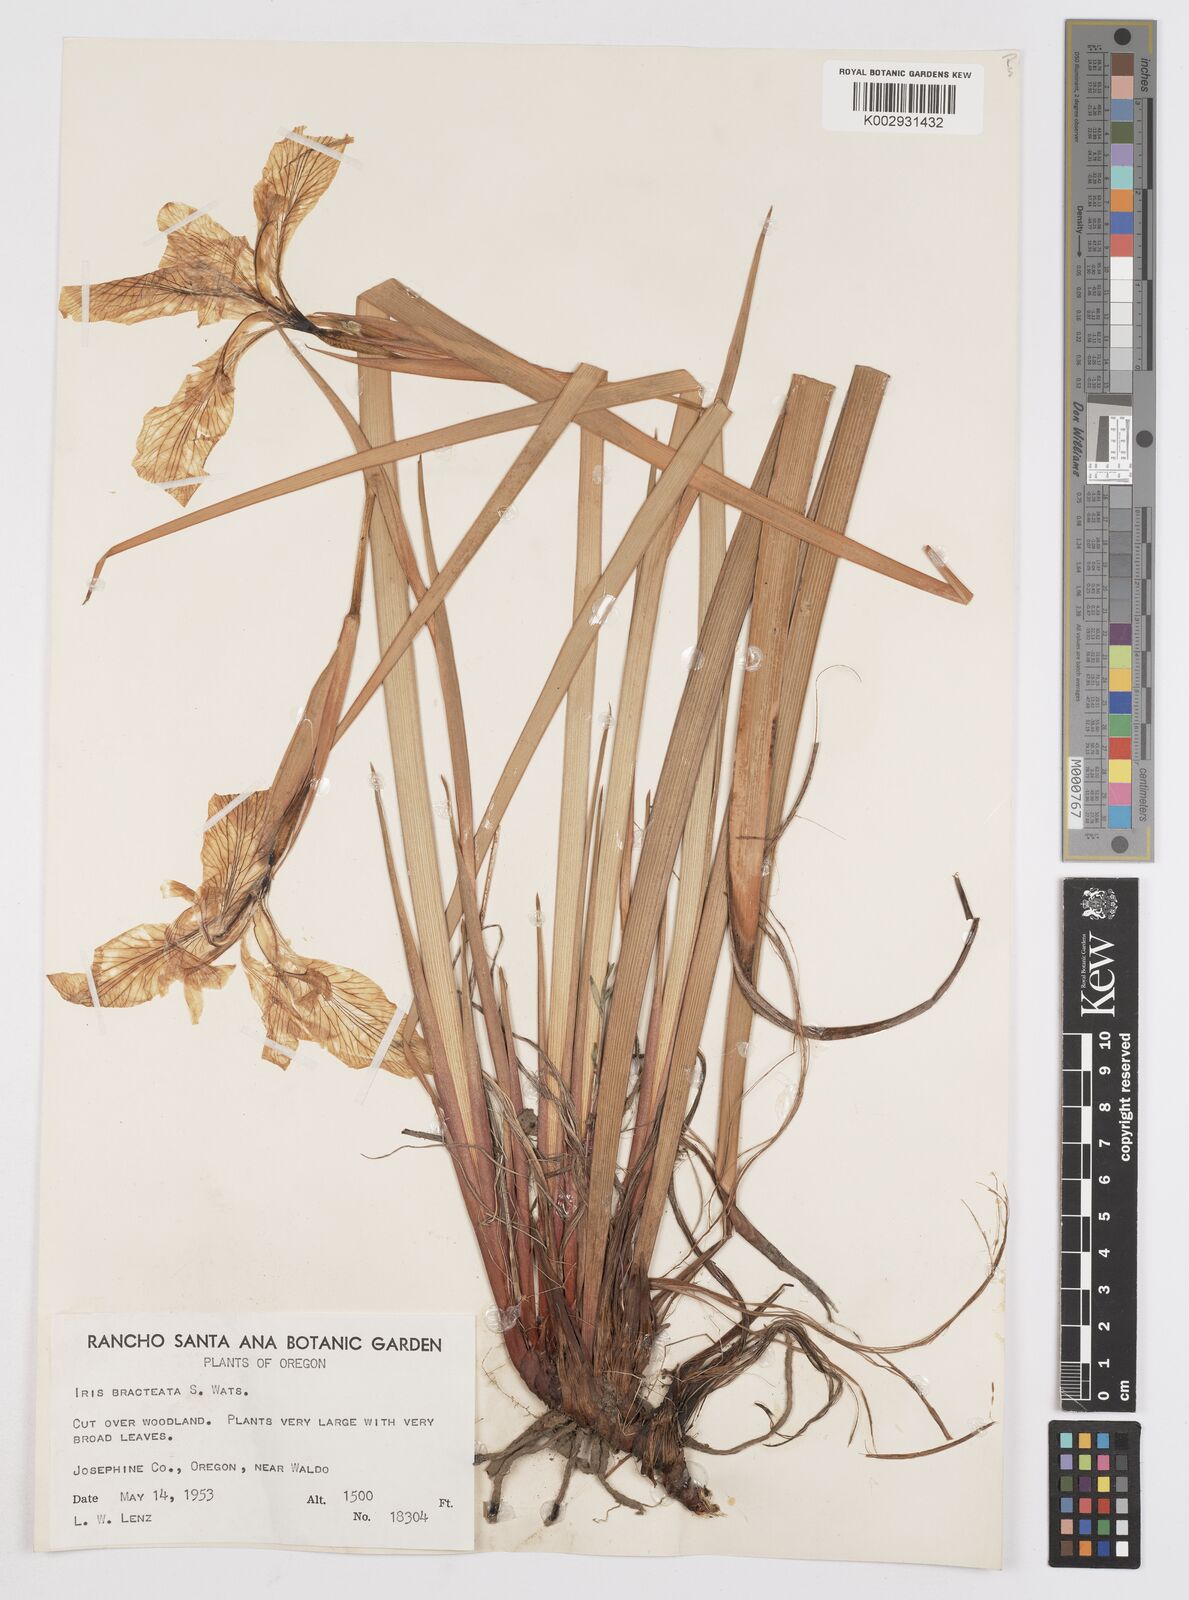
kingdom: Plantae
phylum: Tracheophyta
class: Liliopsida
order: Asparagales
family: Iridaceae
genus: Iris
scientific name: Iris bracteata
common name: Siskiyou iris
